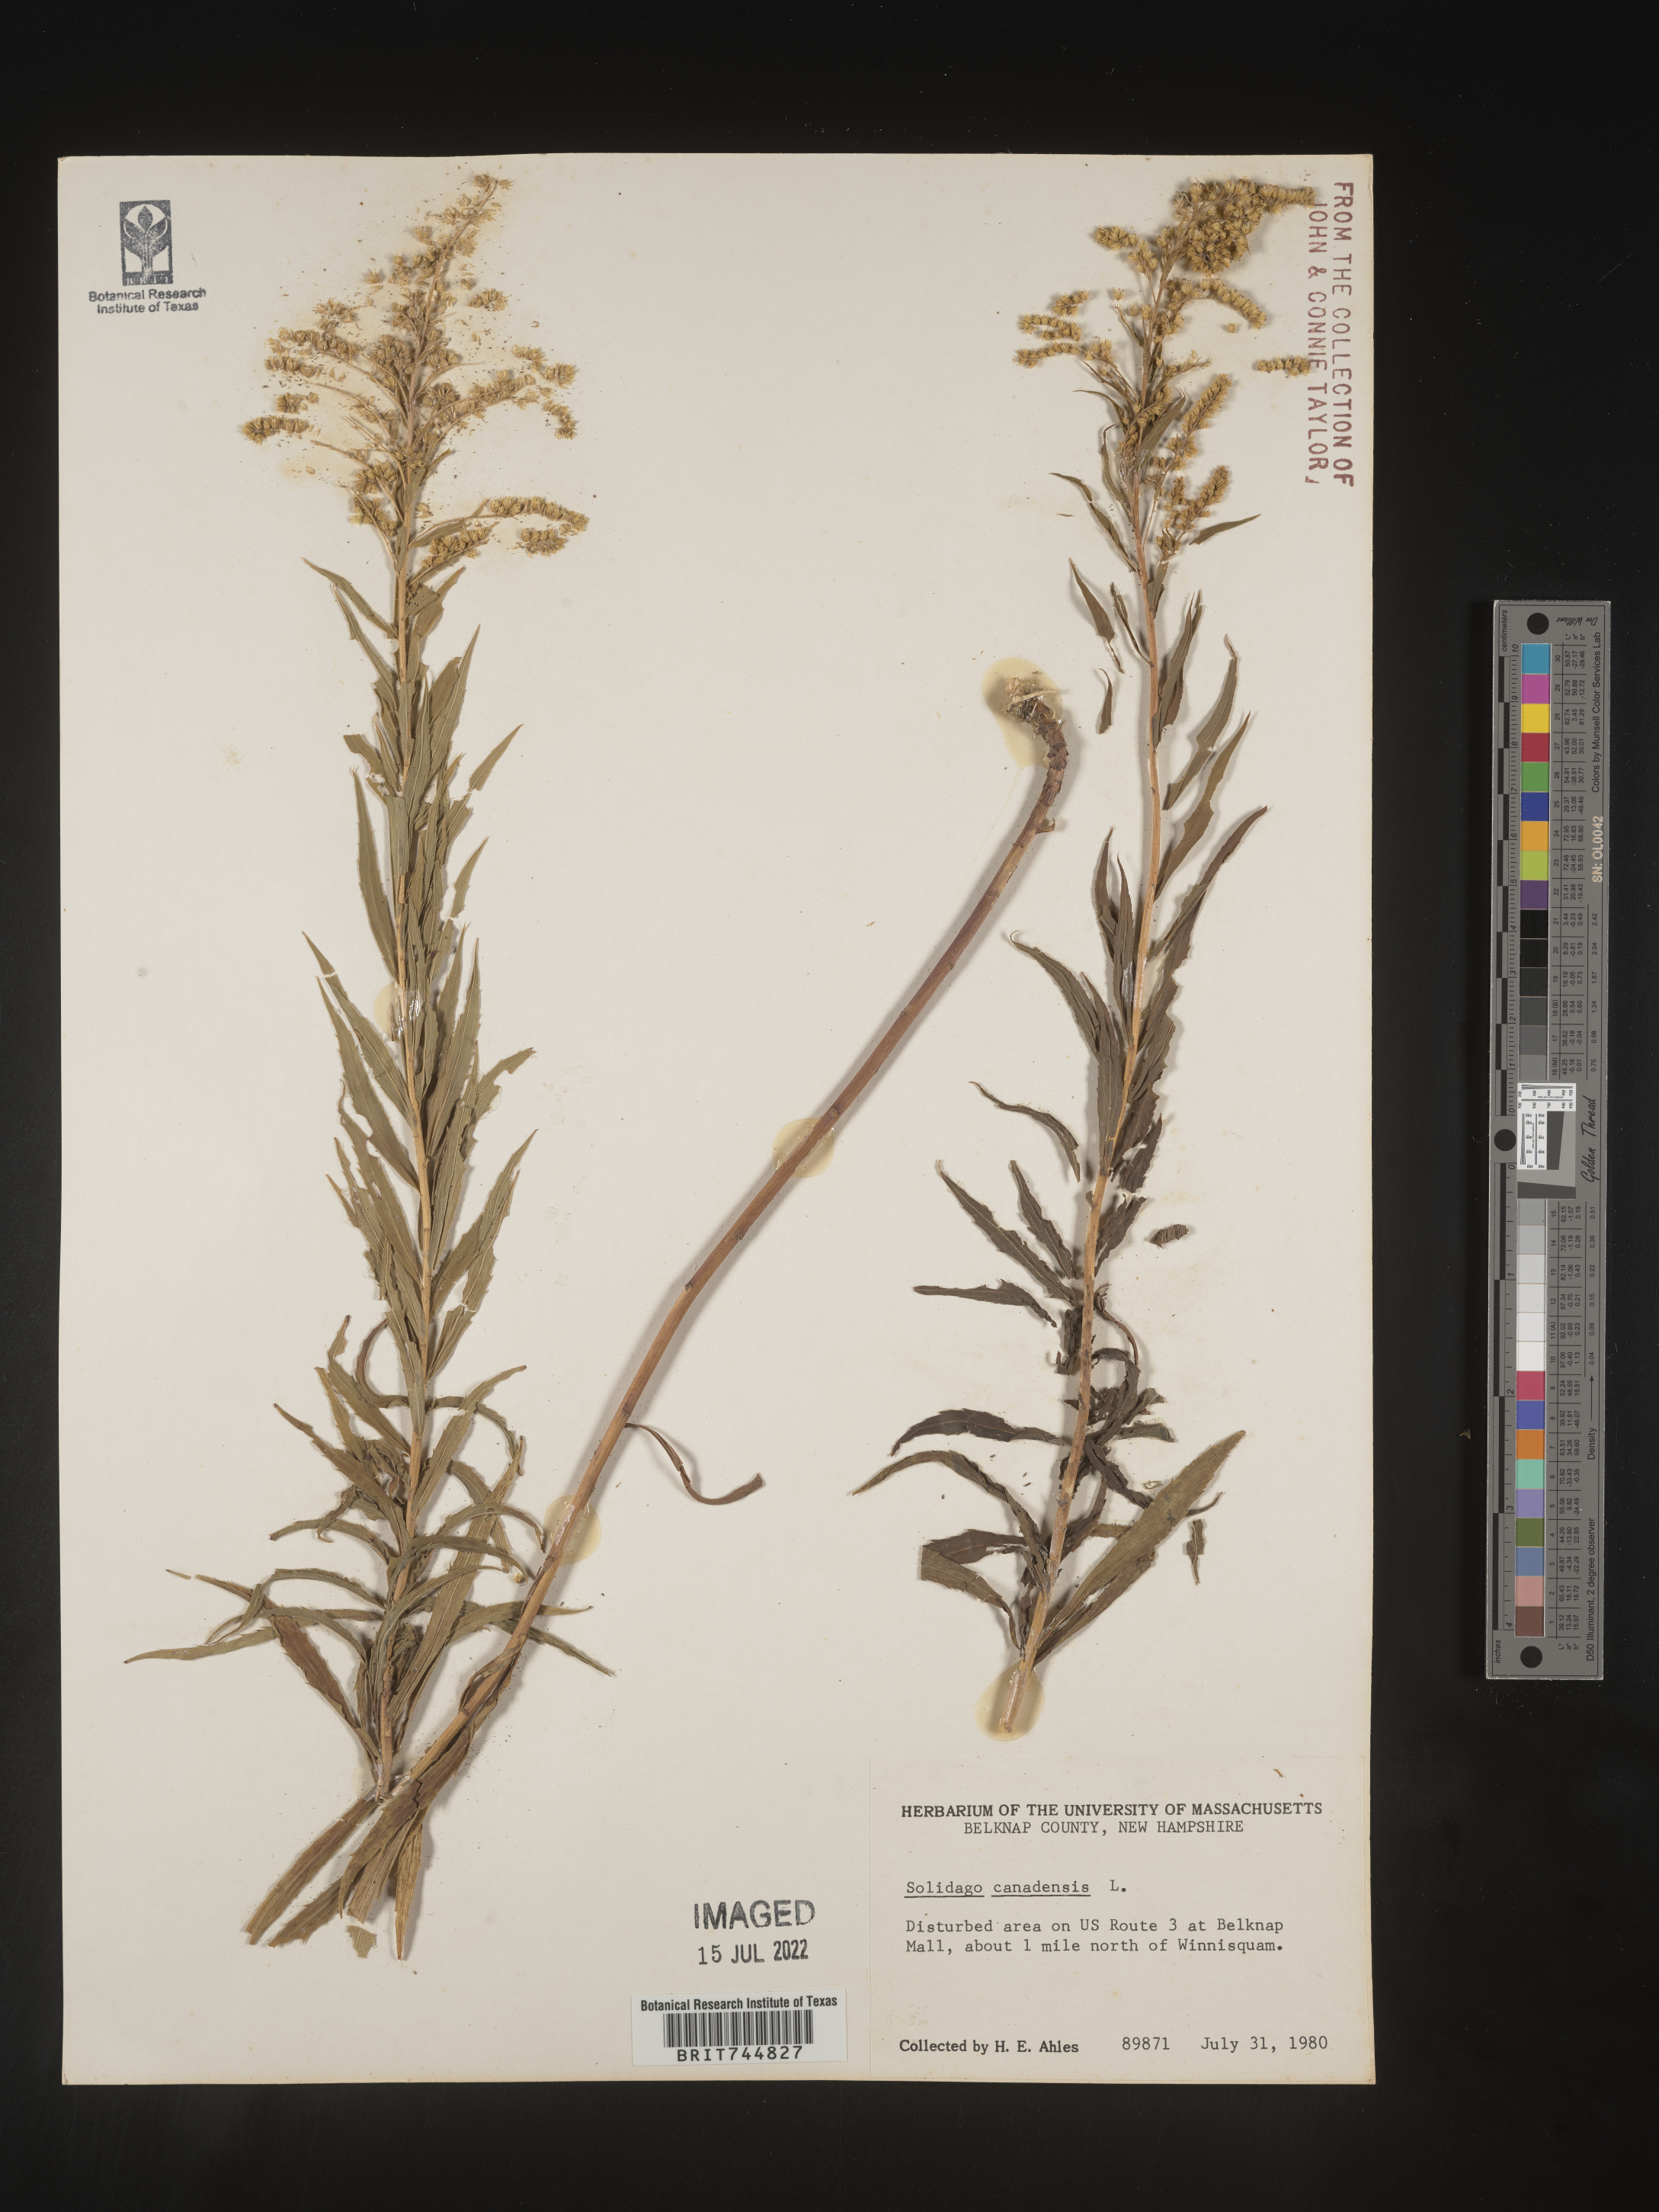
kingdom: Plantae
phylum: Tracheophyta
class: Magnoliopsida
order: Asterales
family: Asteraceae
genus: Solidago
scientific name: Solidago canadensis
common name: Canada goldenrod
